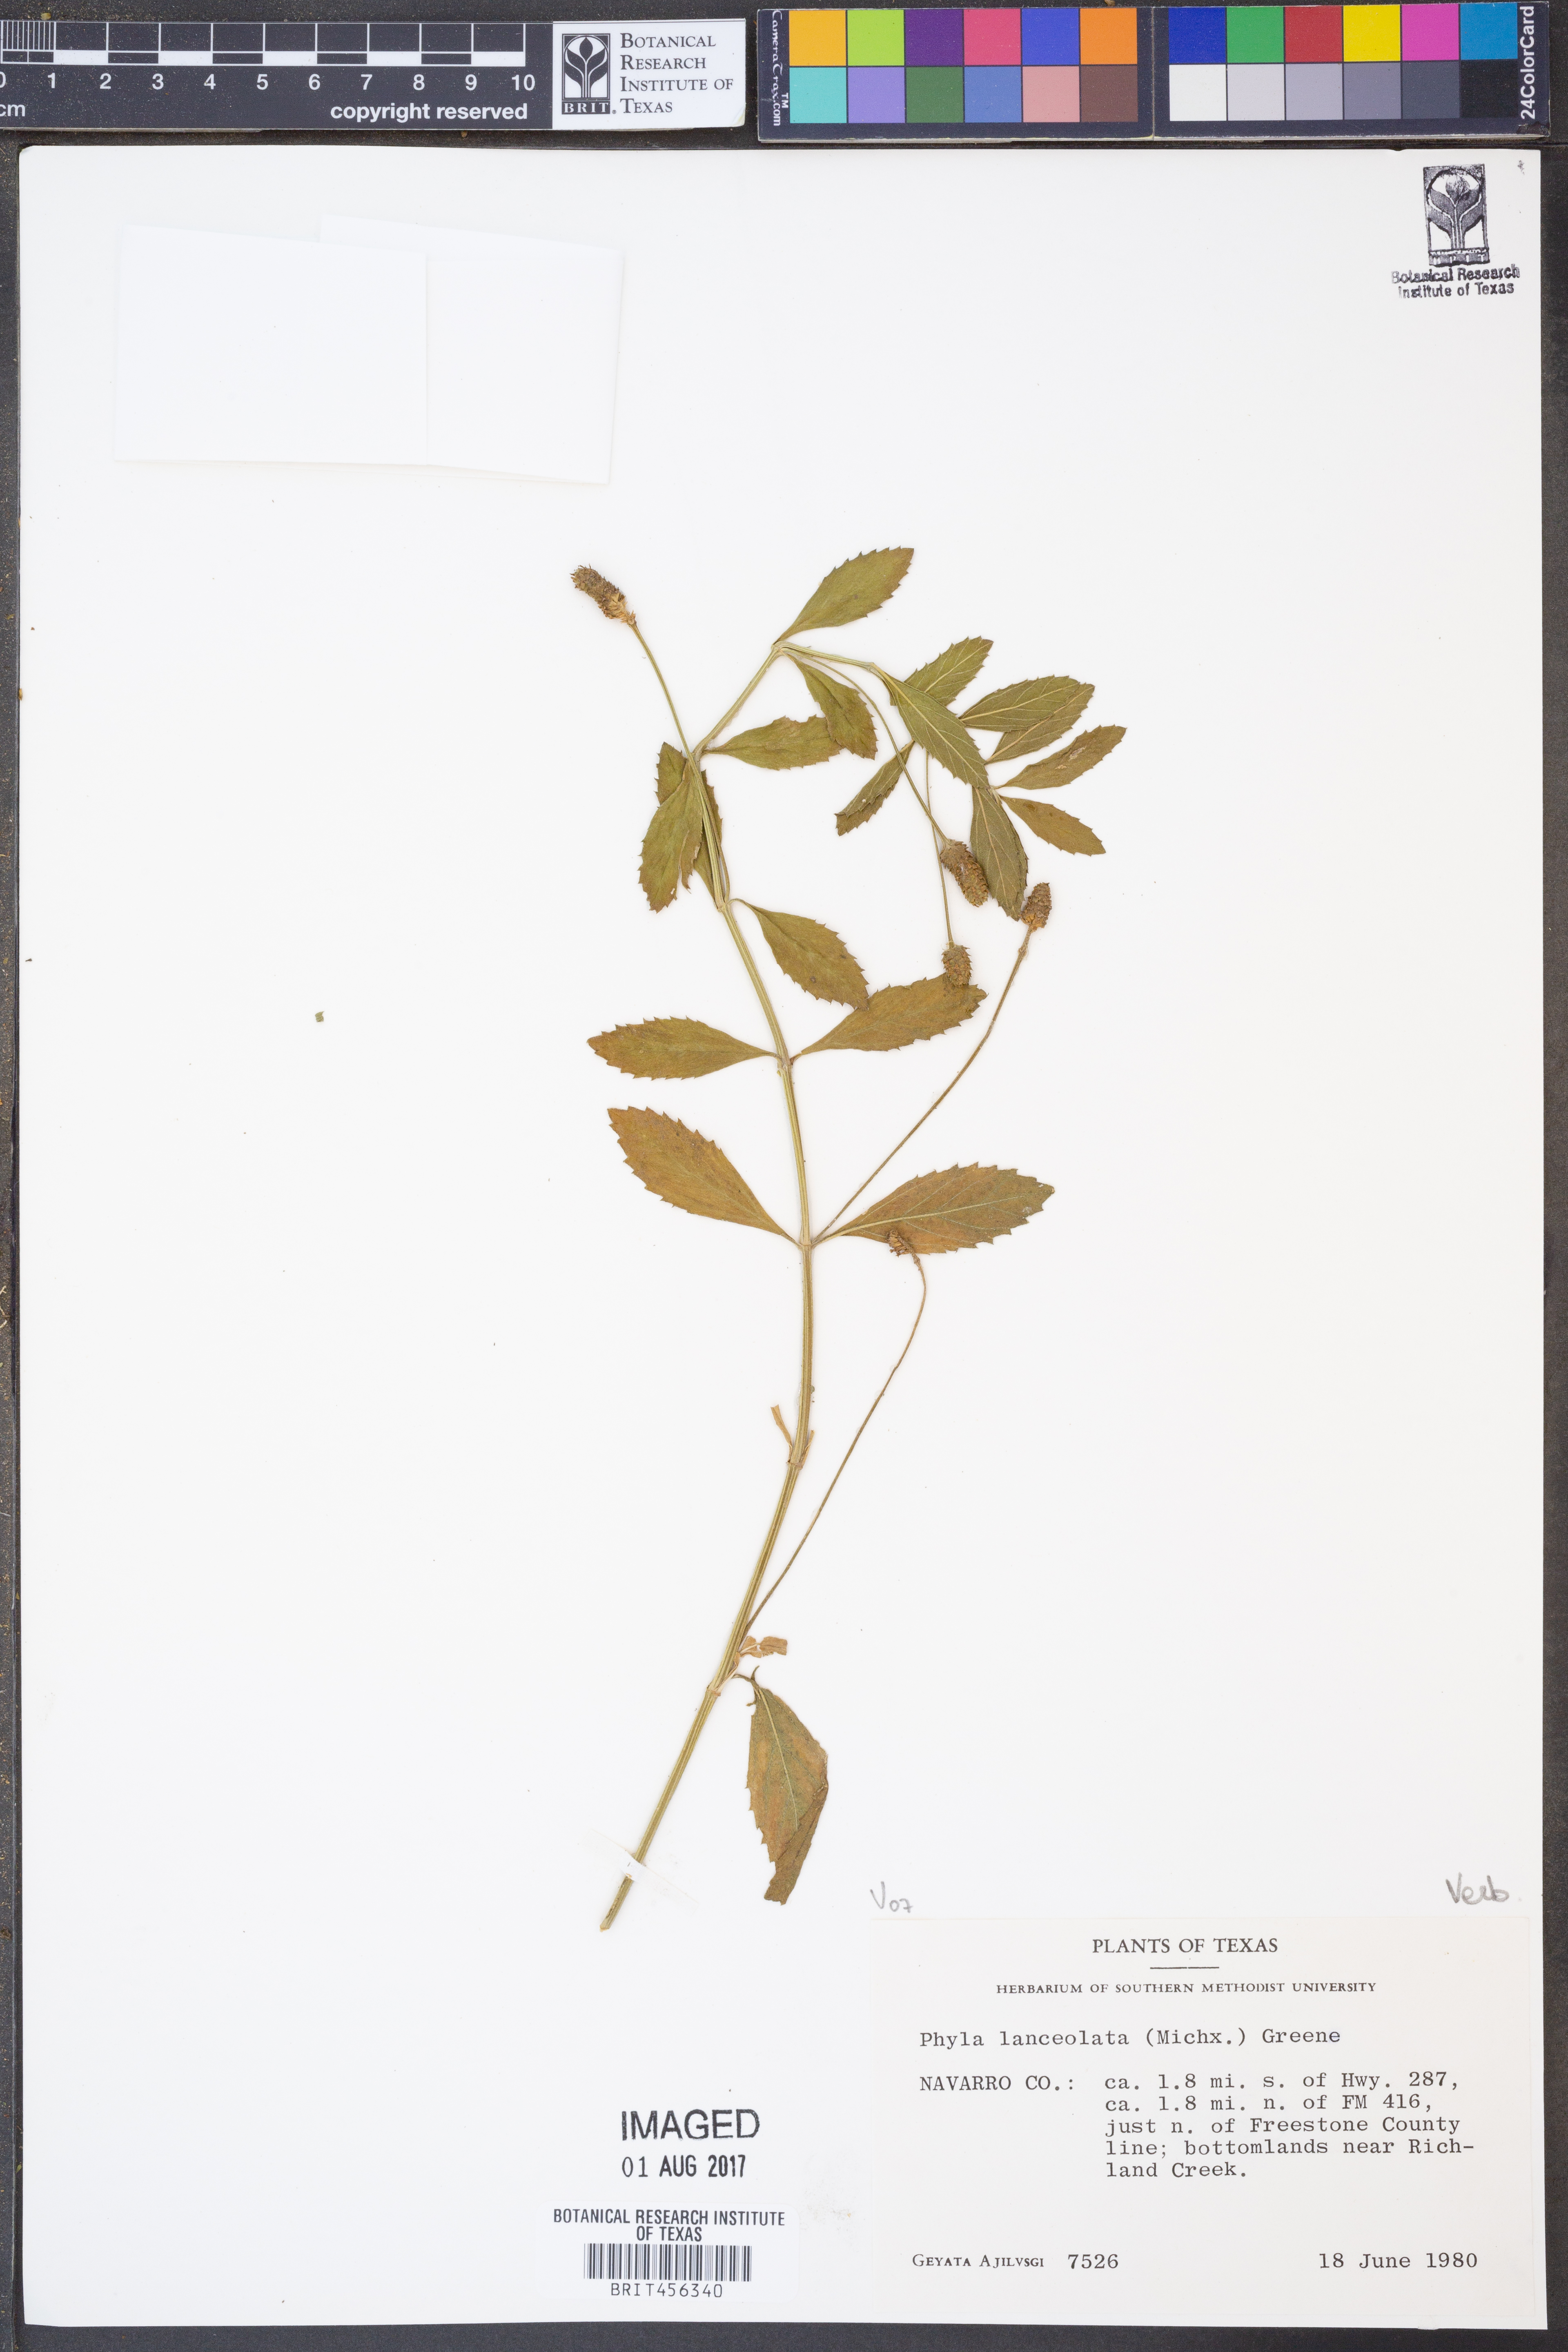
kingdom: Plantae
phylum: Tracheophyta
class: Magnoliopsida
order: Lamiales
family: Verbenaceae
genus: Phyla
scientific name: Phyla lanceolata
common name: Northern fogfruit
